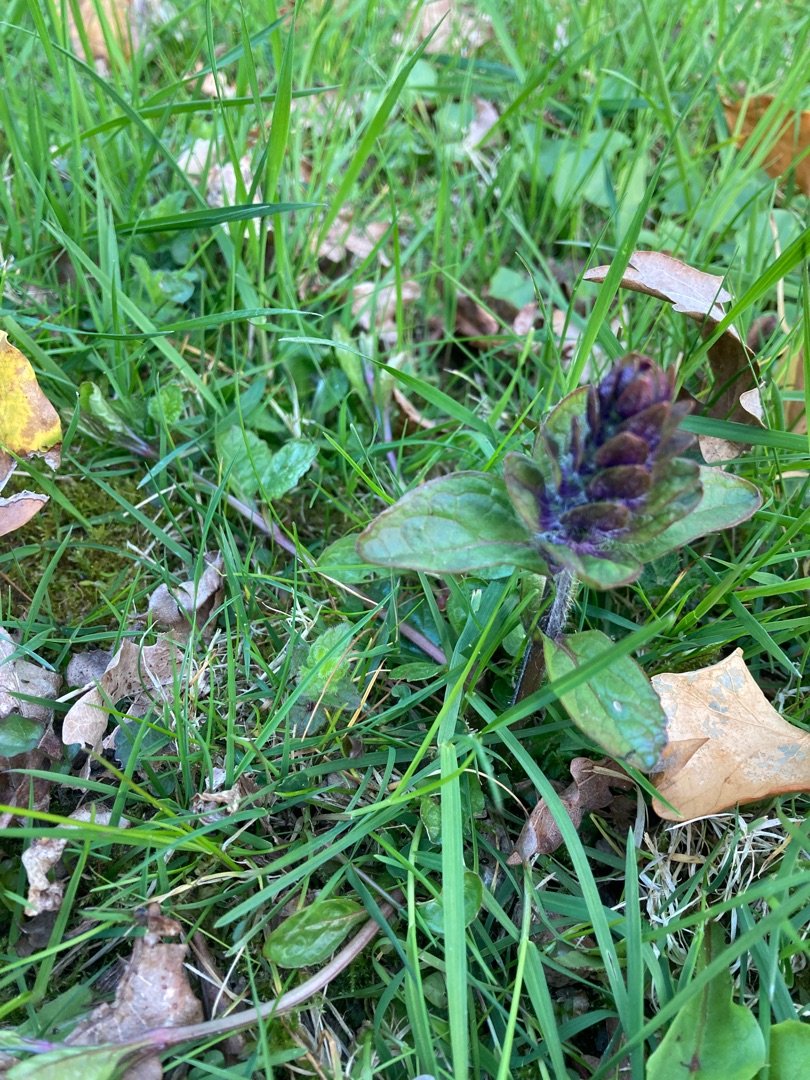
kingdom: Plantae
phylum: Tracheophyta
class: Magnoliopsida
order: Lamiales
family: Lamiaceae
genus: Ajuga
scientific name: Ajuga reptans
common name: Krybende læbeløs
